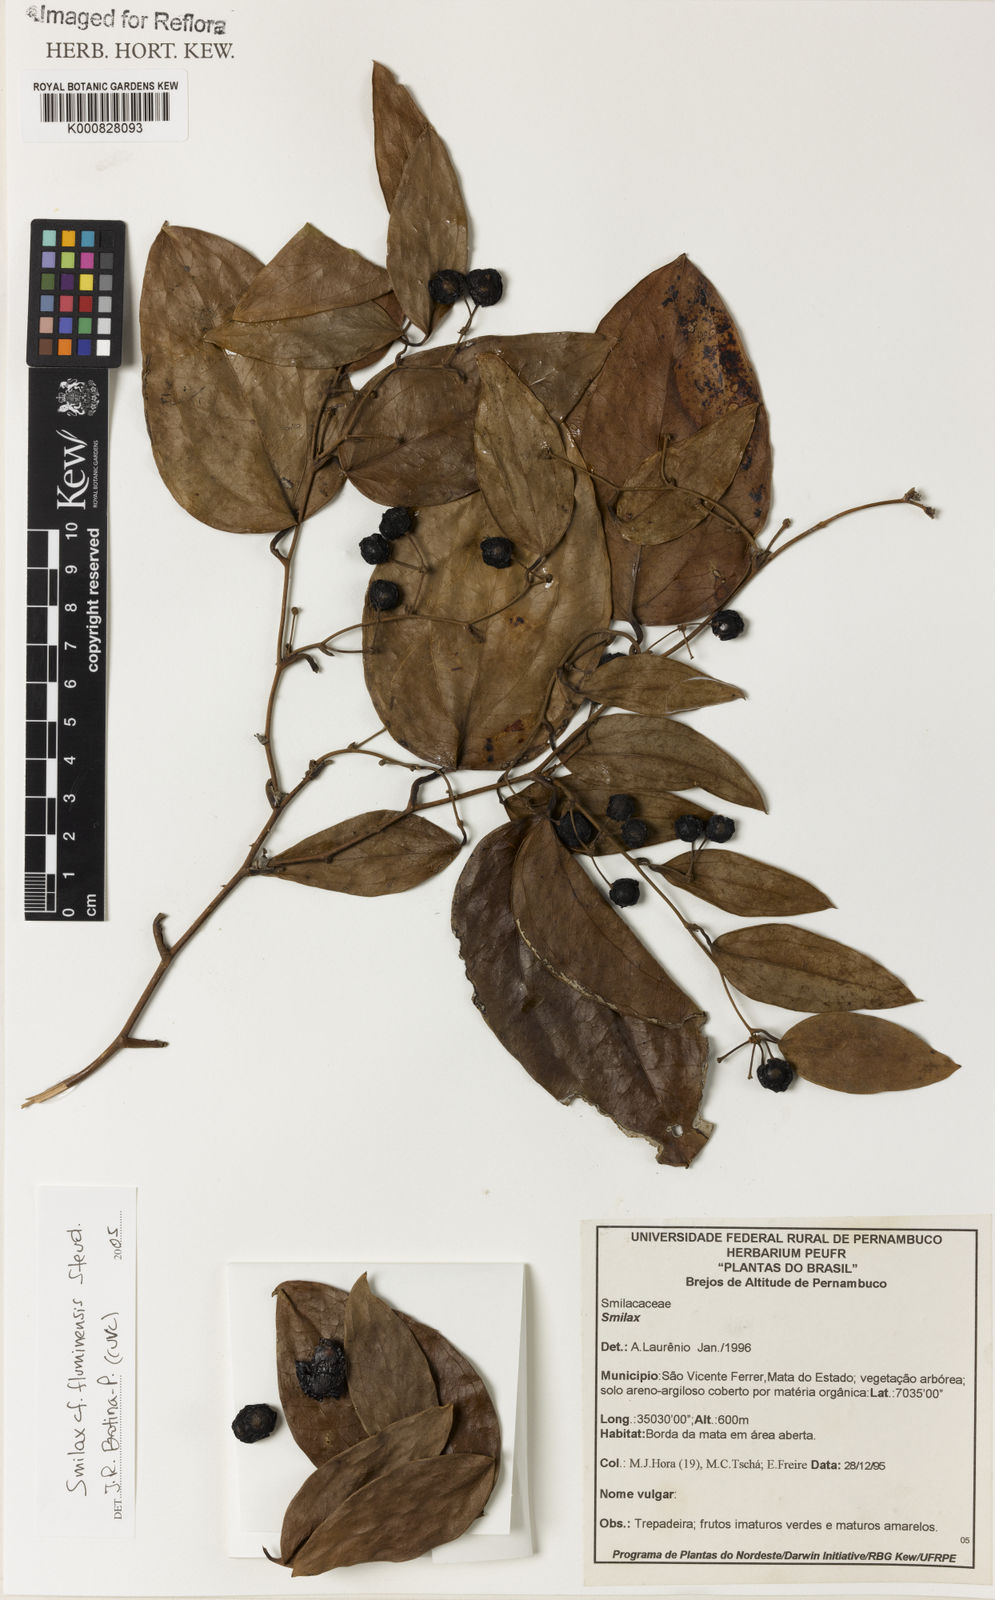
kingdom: Plantae
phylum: Tracheophyta
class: Liliopsida
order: Liliales
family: Smilacaceae
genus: Smilax
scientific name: Smilax fluminensis
